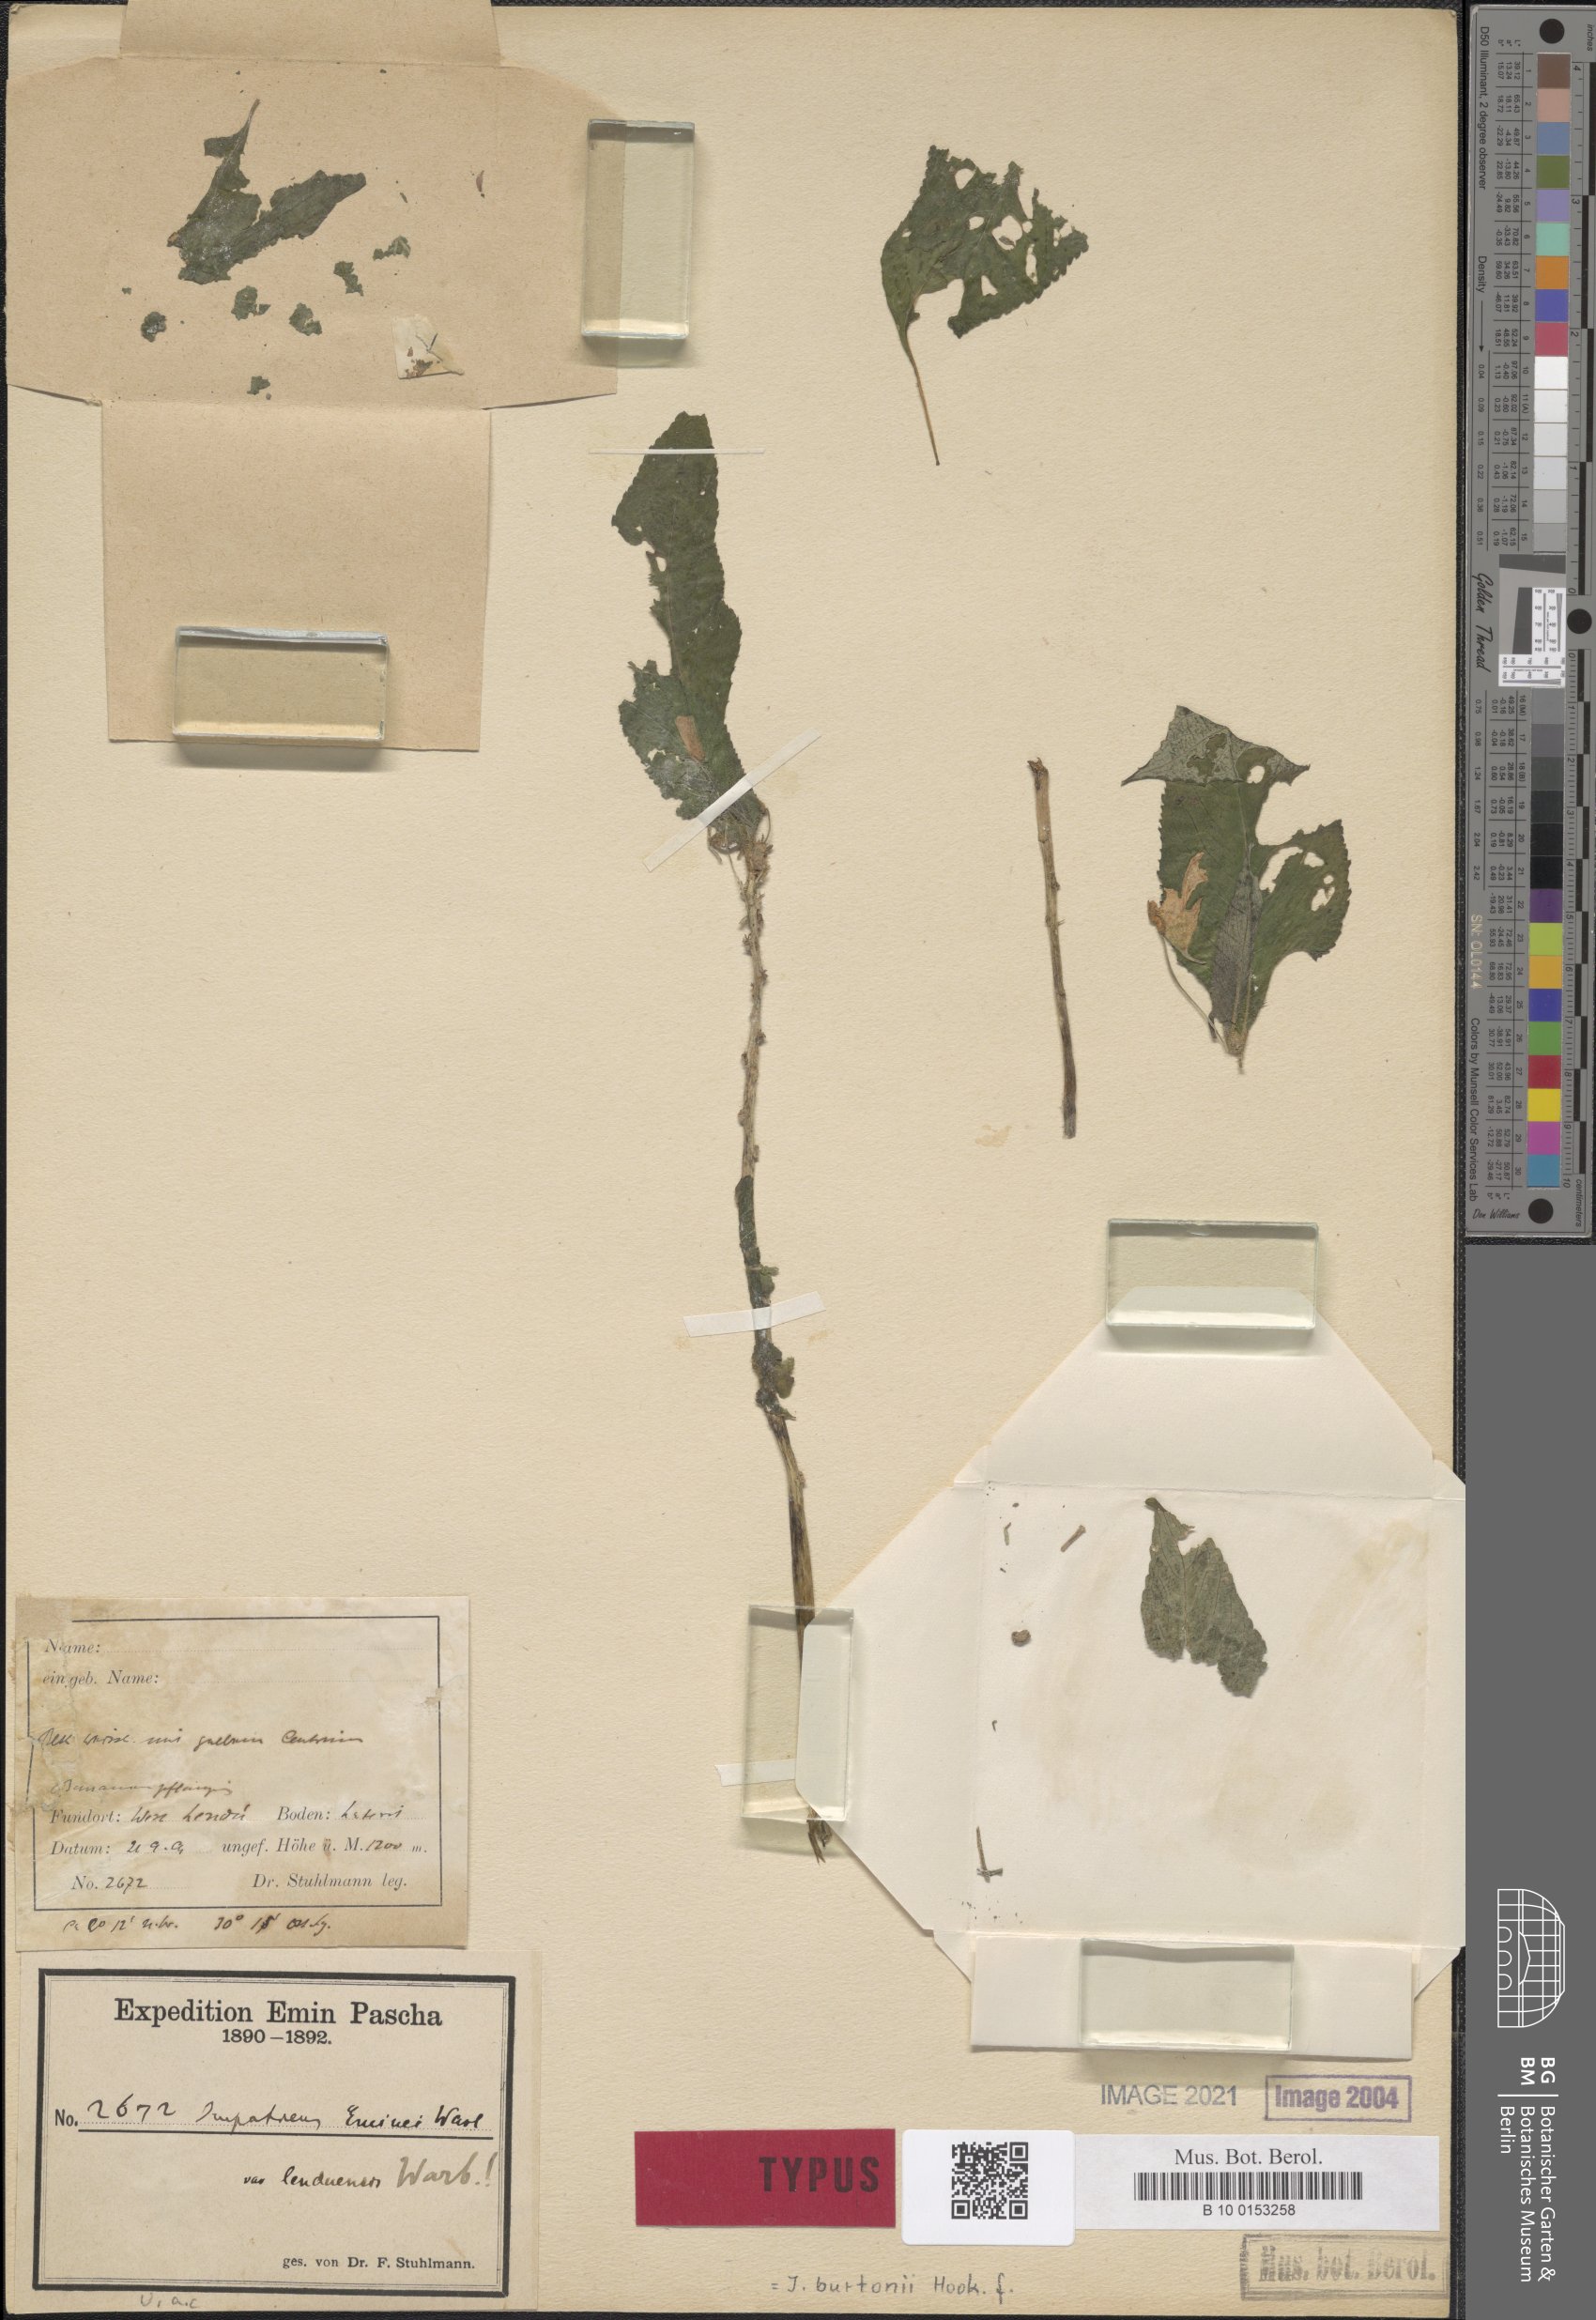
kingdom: Plantae
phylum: Tracheophyta
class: Magnoliopsida
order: Ericales
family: Balsaminaceae
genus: Impatiens
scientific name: Impatiens burtonii
